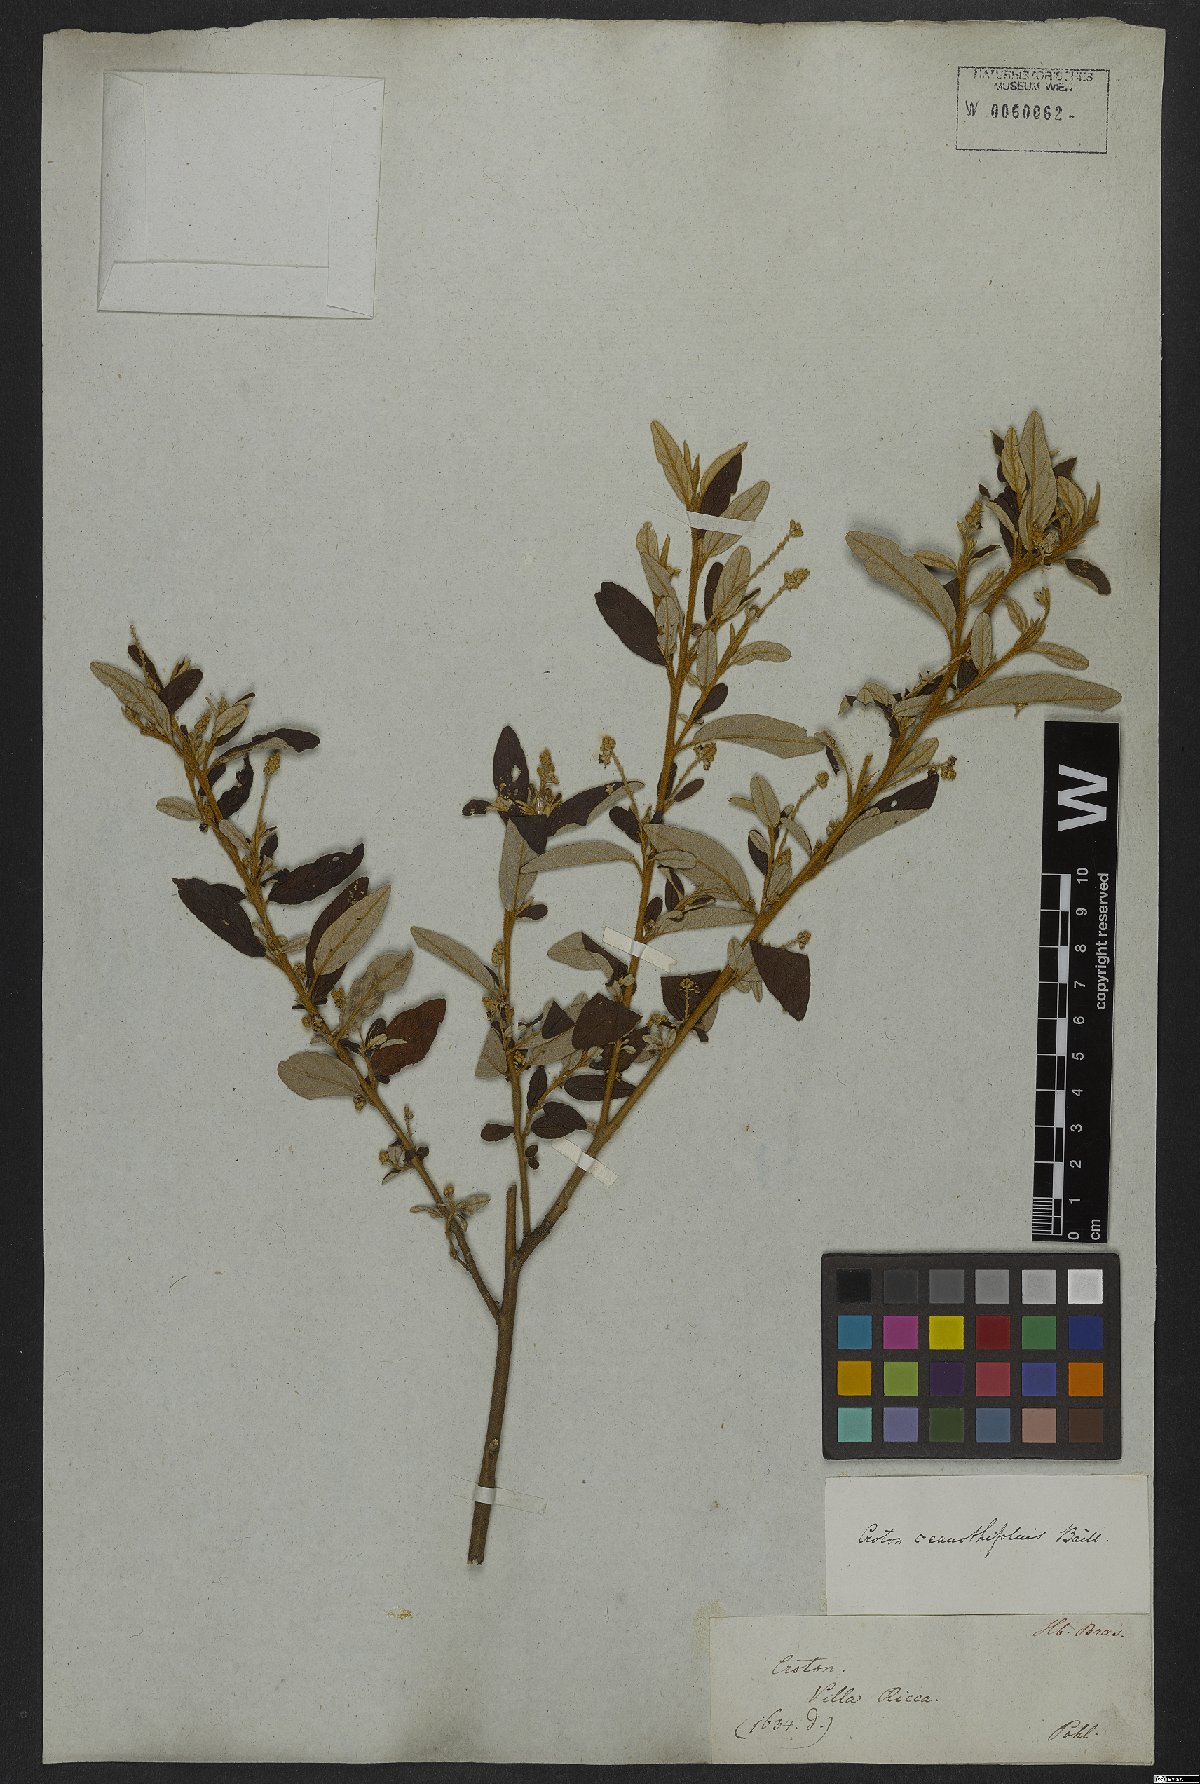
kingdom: Plantae
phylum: Tracheophyta
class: Magnoliopsida
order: Malpighiales
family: Euphorbiaceae
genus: Croton
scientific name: Croton ceanothifolius
